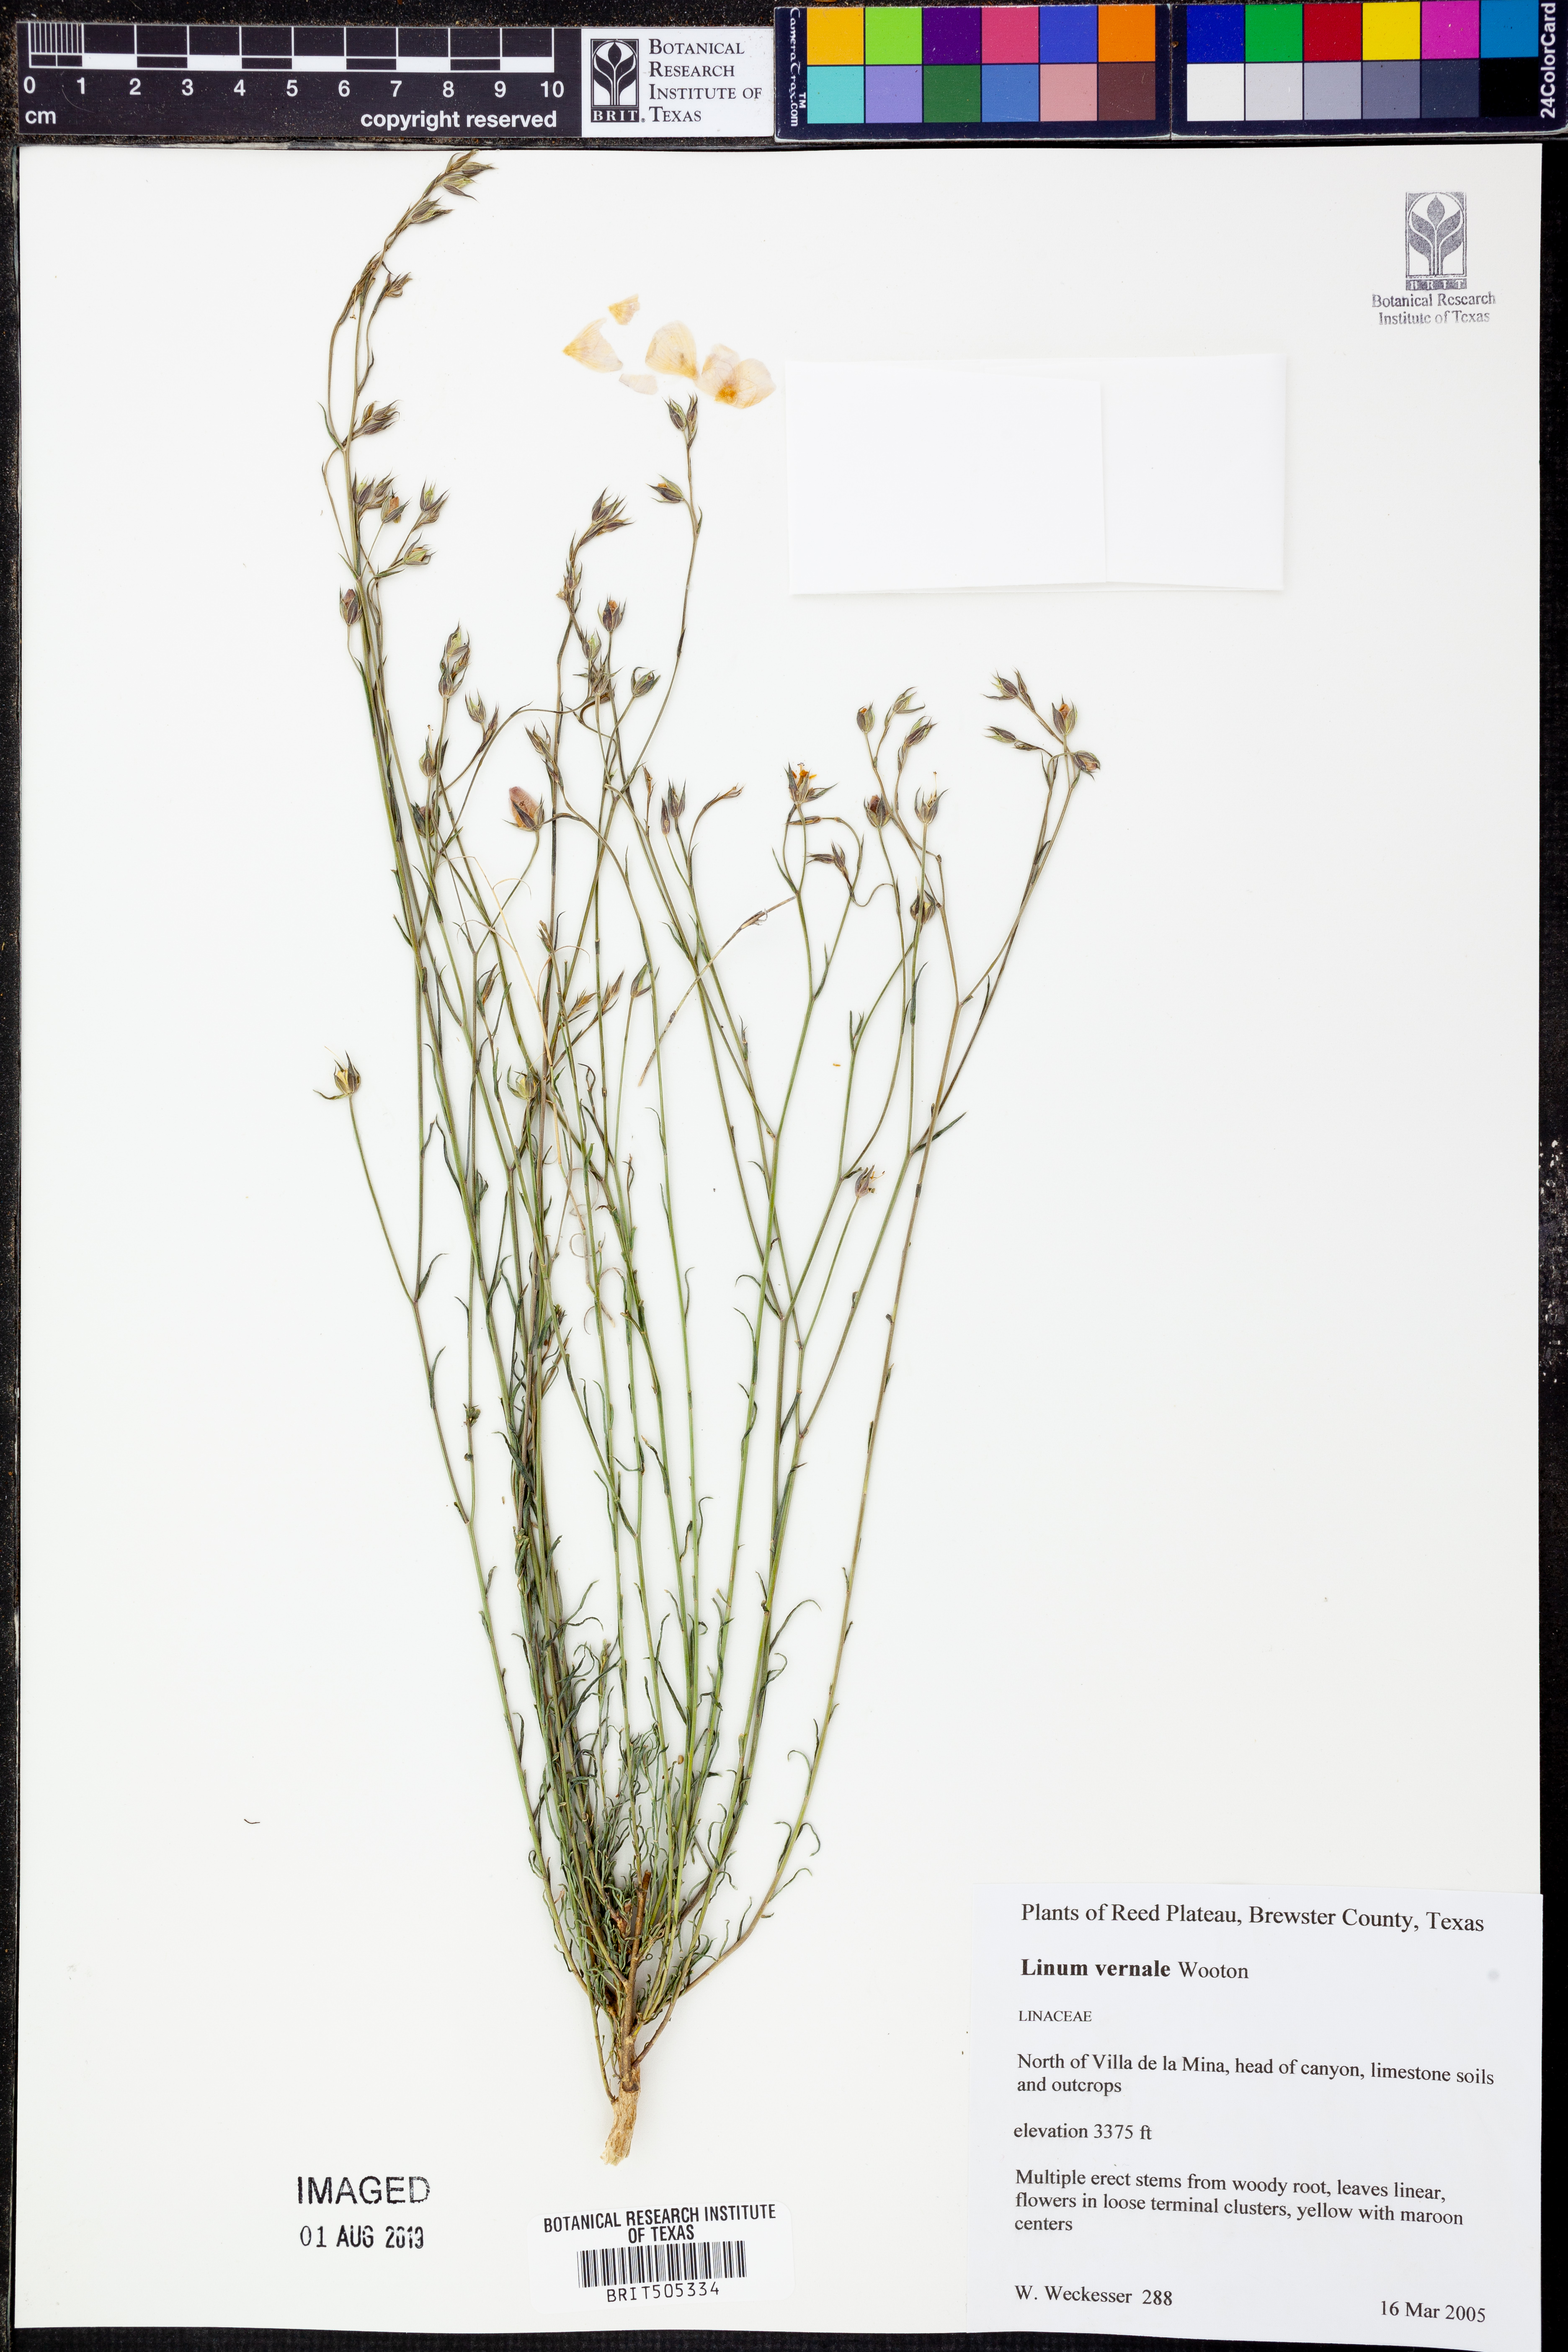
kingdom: Plantae
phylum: Tracheophyta
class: Magnoliopsida
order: Malpighiales
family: Linaceae
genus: Linum
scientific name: Linum vernale
